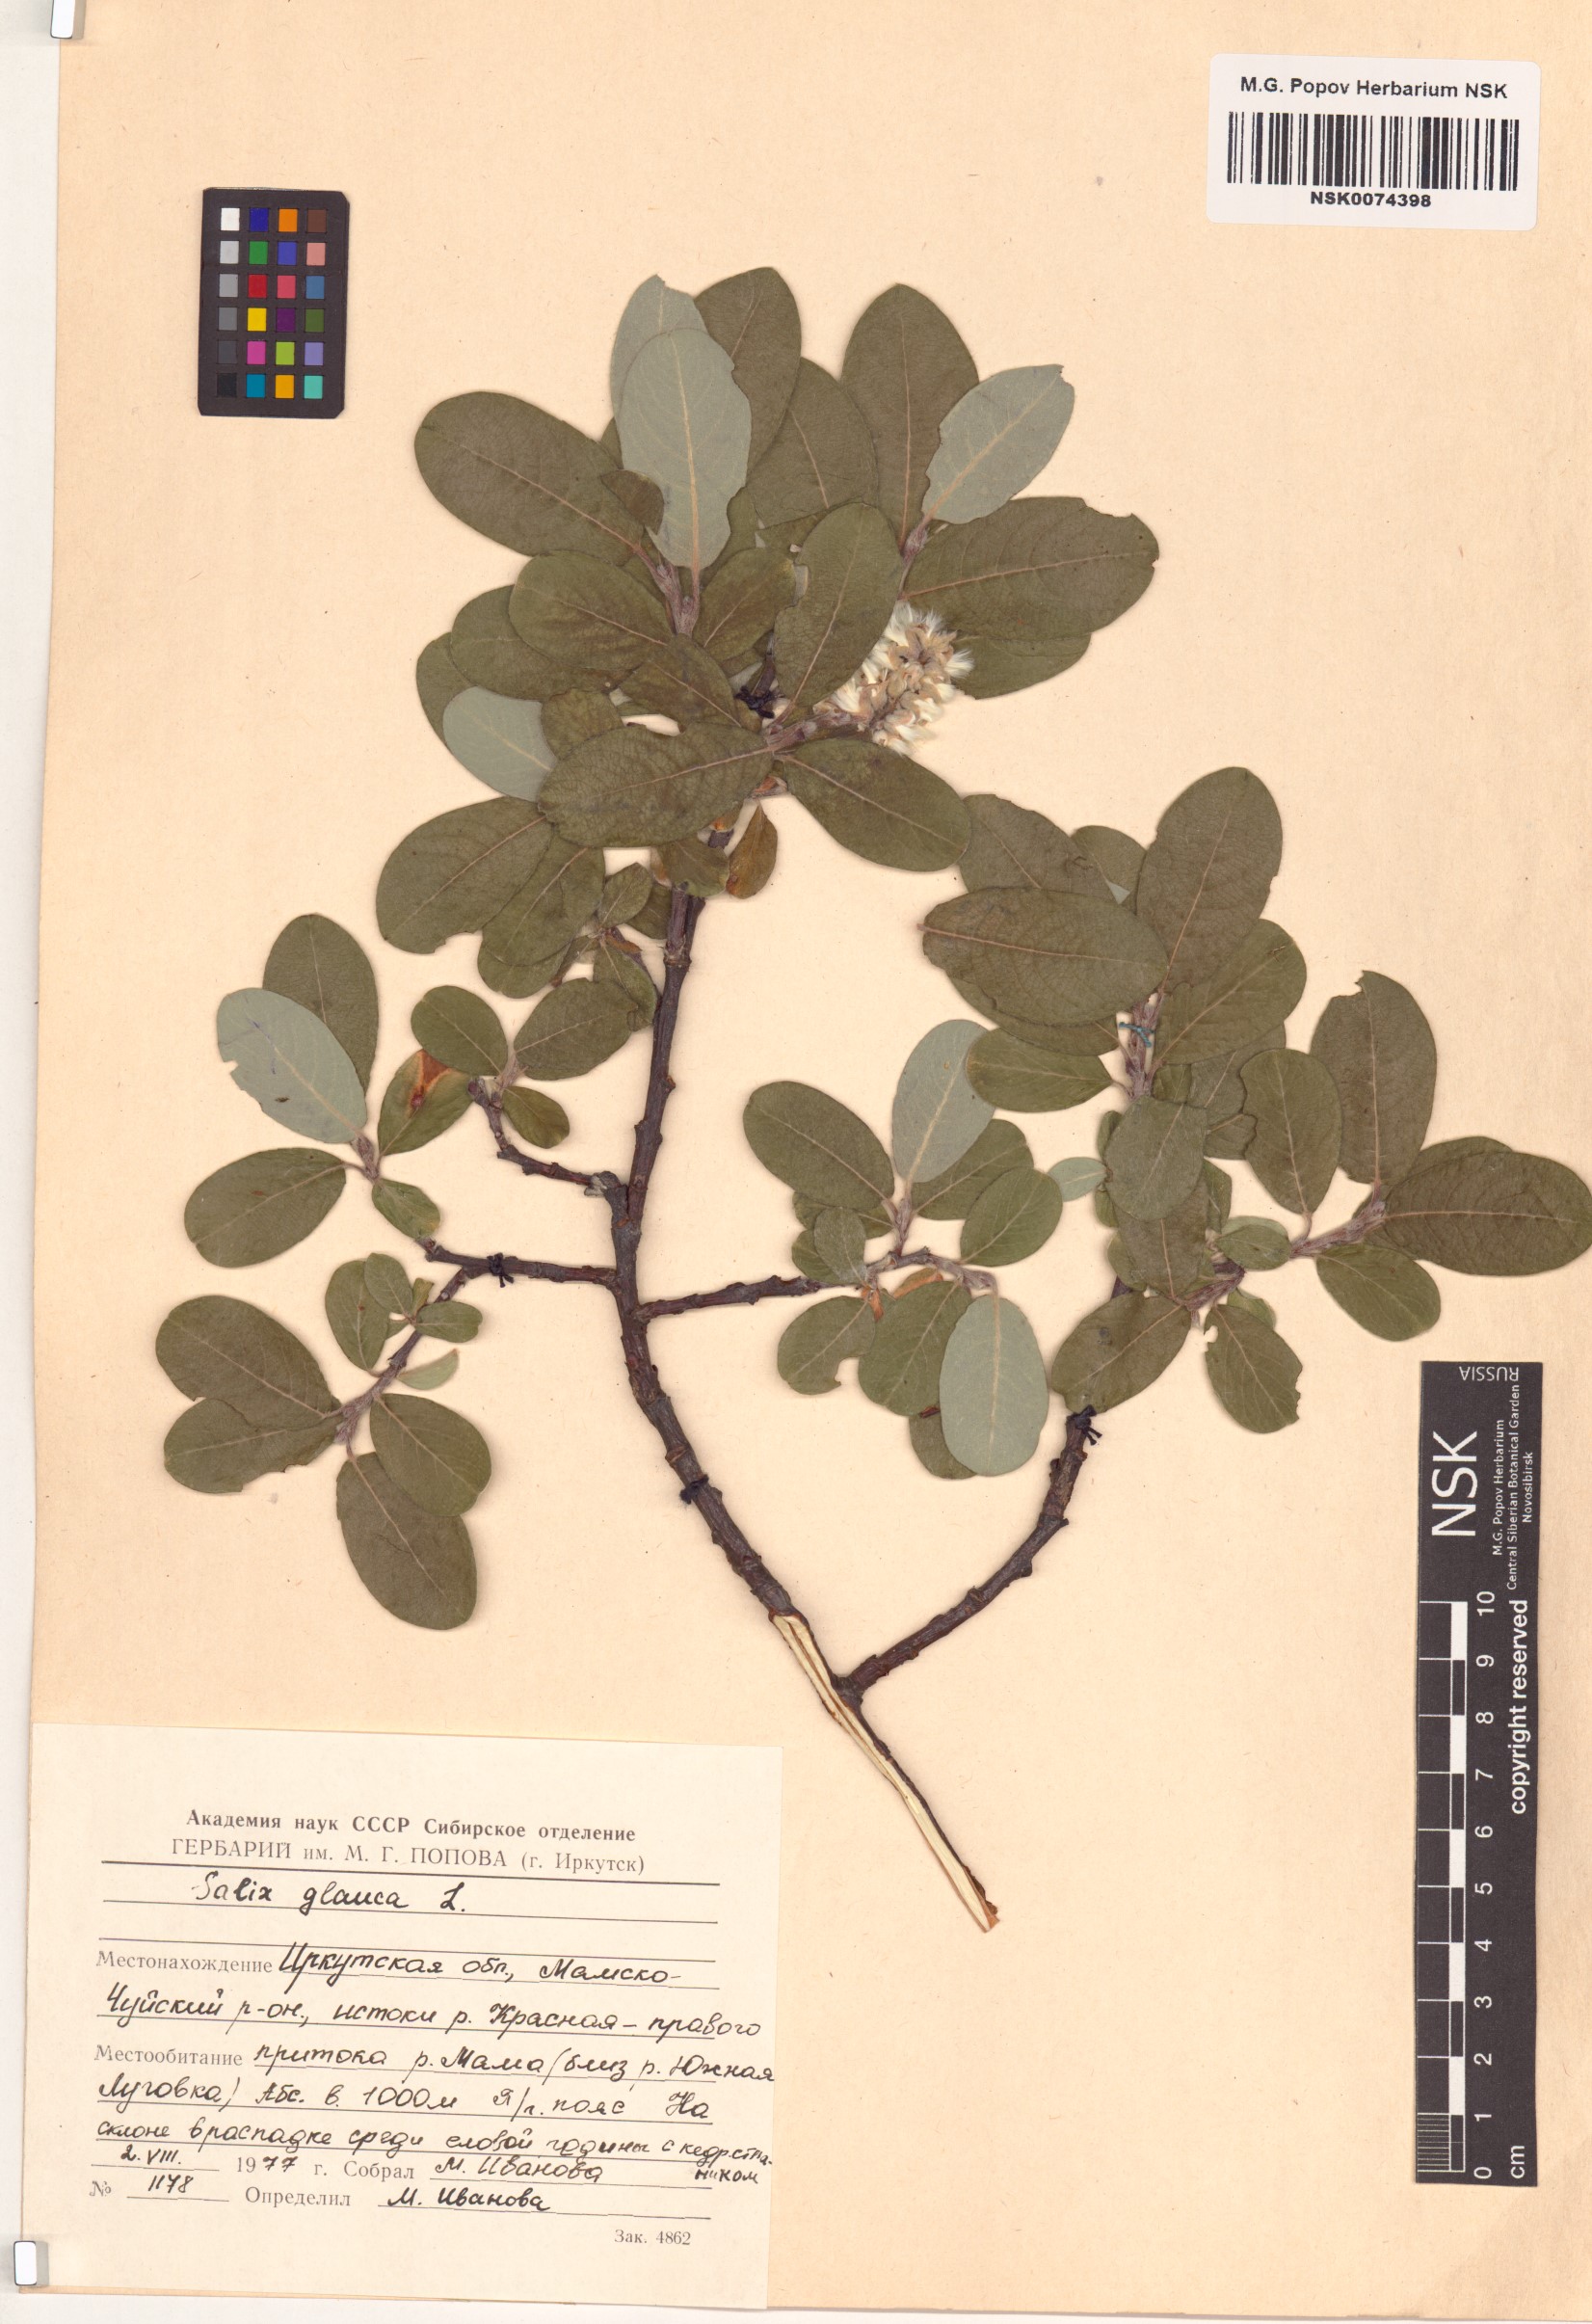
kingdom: Plantae
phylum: Tracheophyta
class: Magnoliopsida
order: Malpighiales
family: Salicaceae
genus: Salix
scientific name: Salix glauca
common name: Glaucous willow
